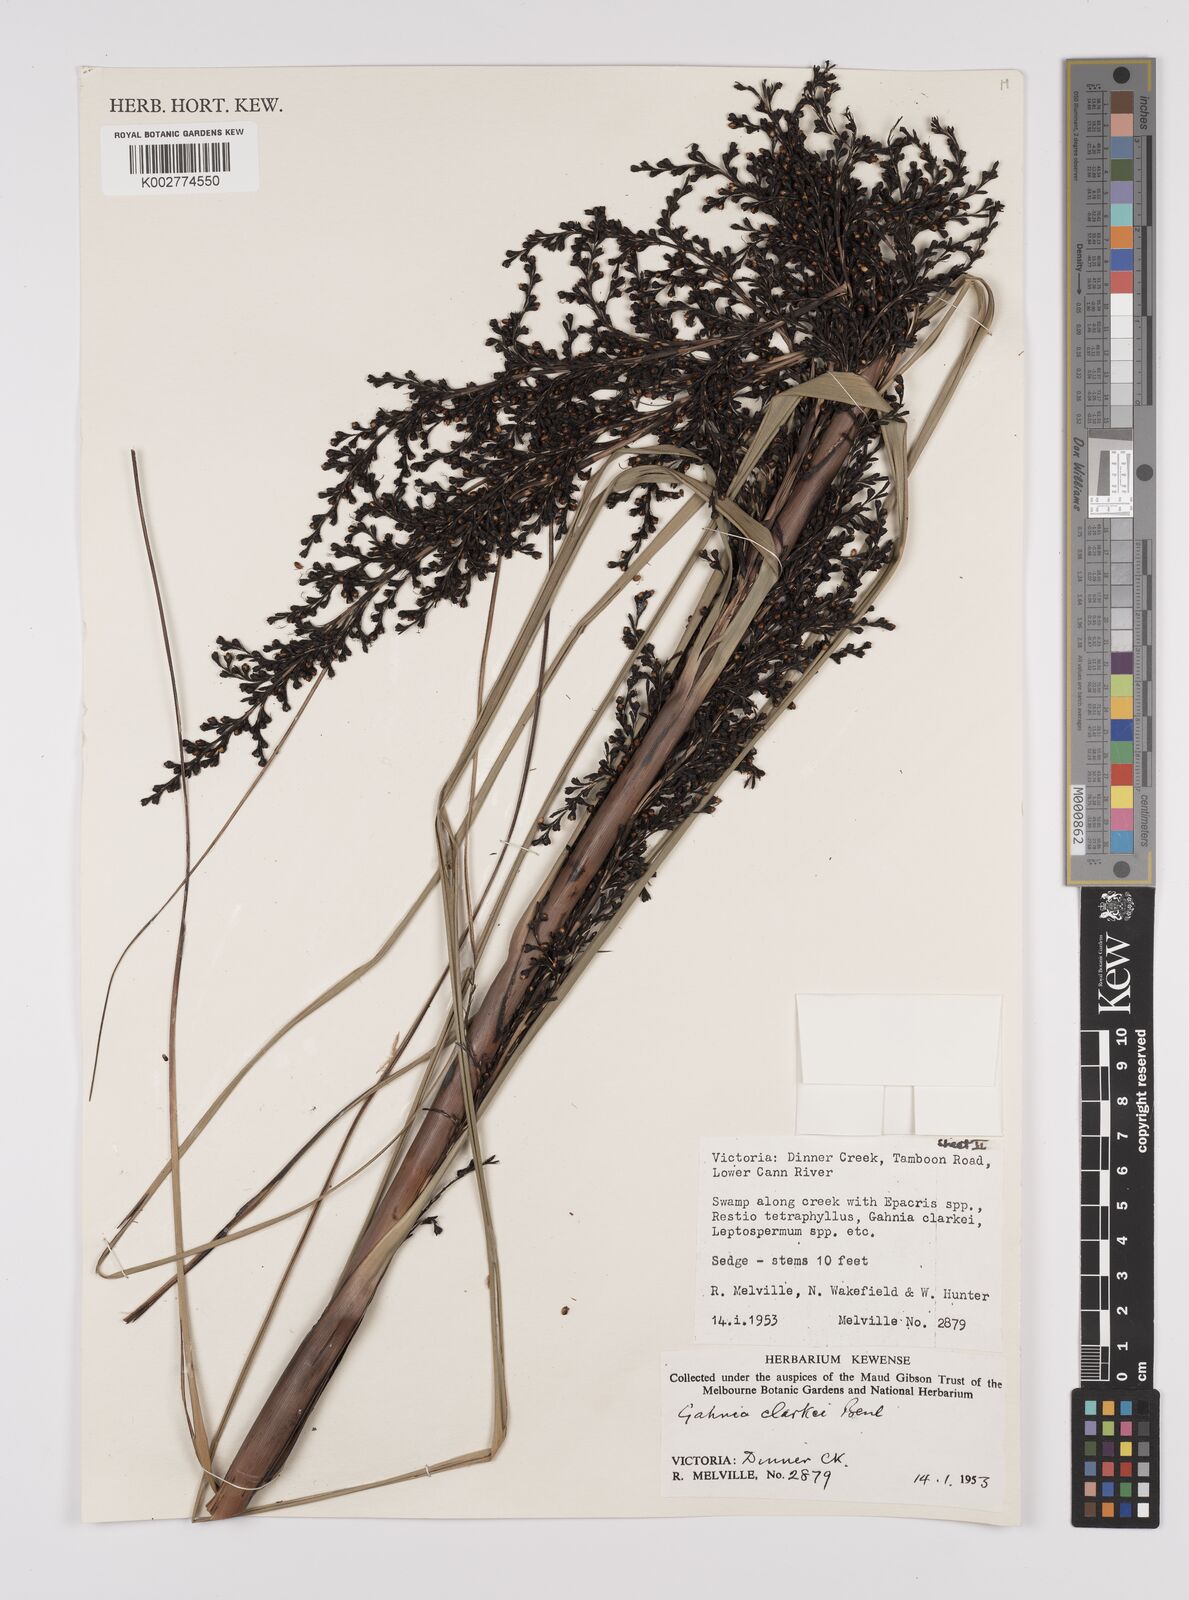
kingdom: Plantae
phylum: Tracheophyta
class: Liliopsida
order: Poales
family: Cyperaceae
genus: Gahnia
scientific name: Gahnia clarkei
